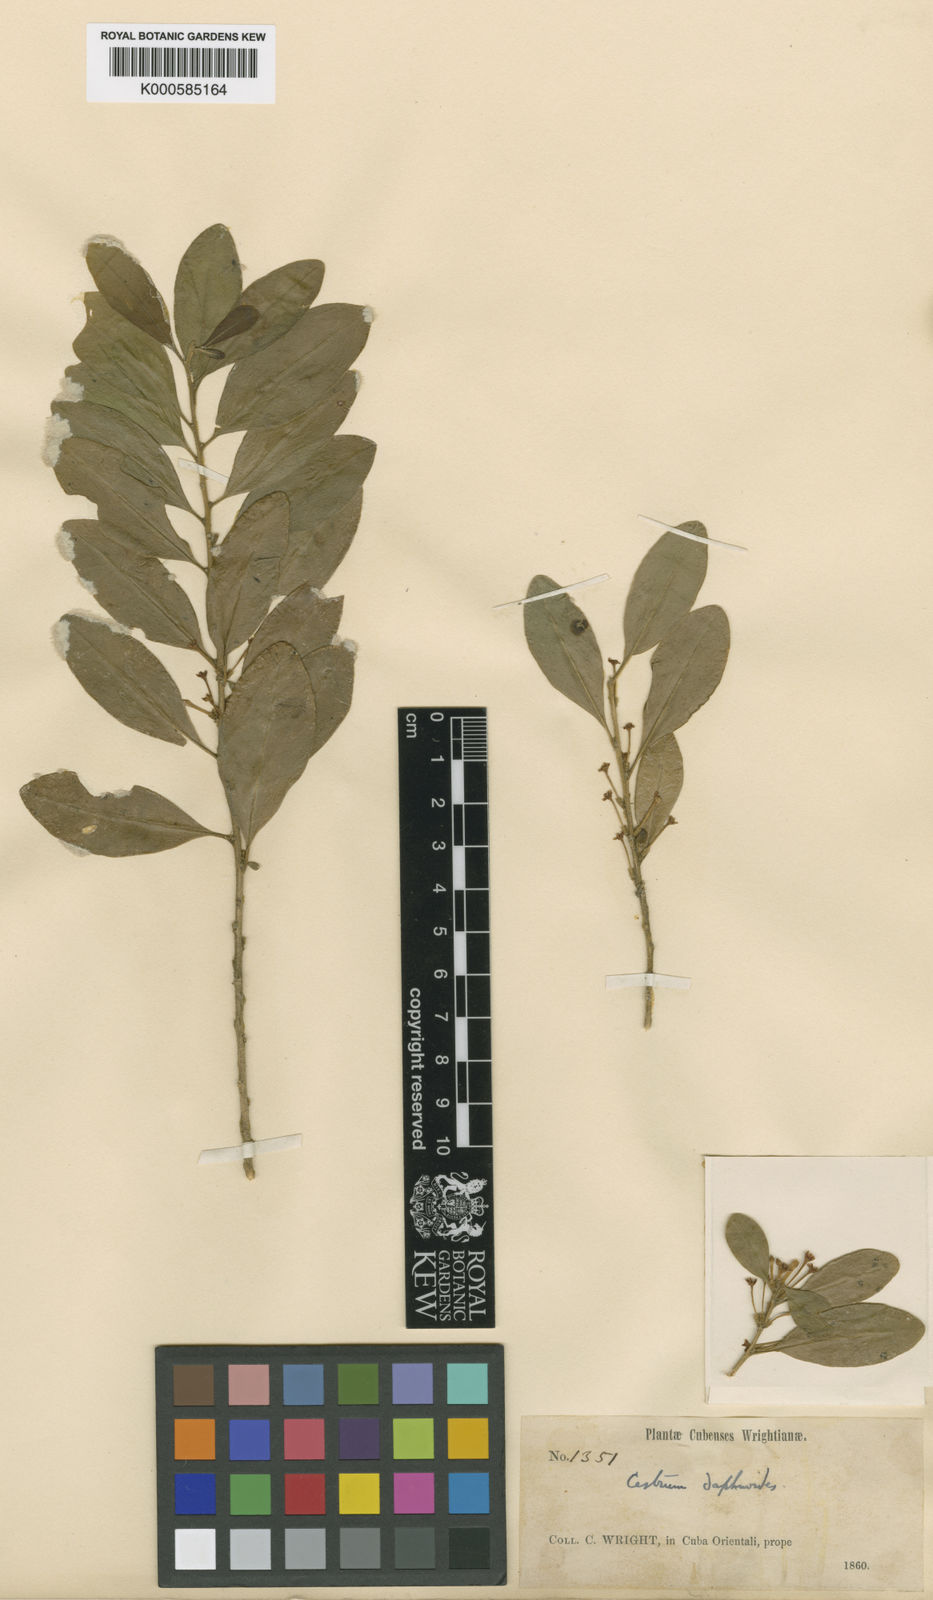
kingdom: Plantae
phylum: Tracheophyta
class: Magnoliopsida
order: Solanales
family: Solanaceae
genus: Cestrum
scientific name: Cestrum daphnoides
